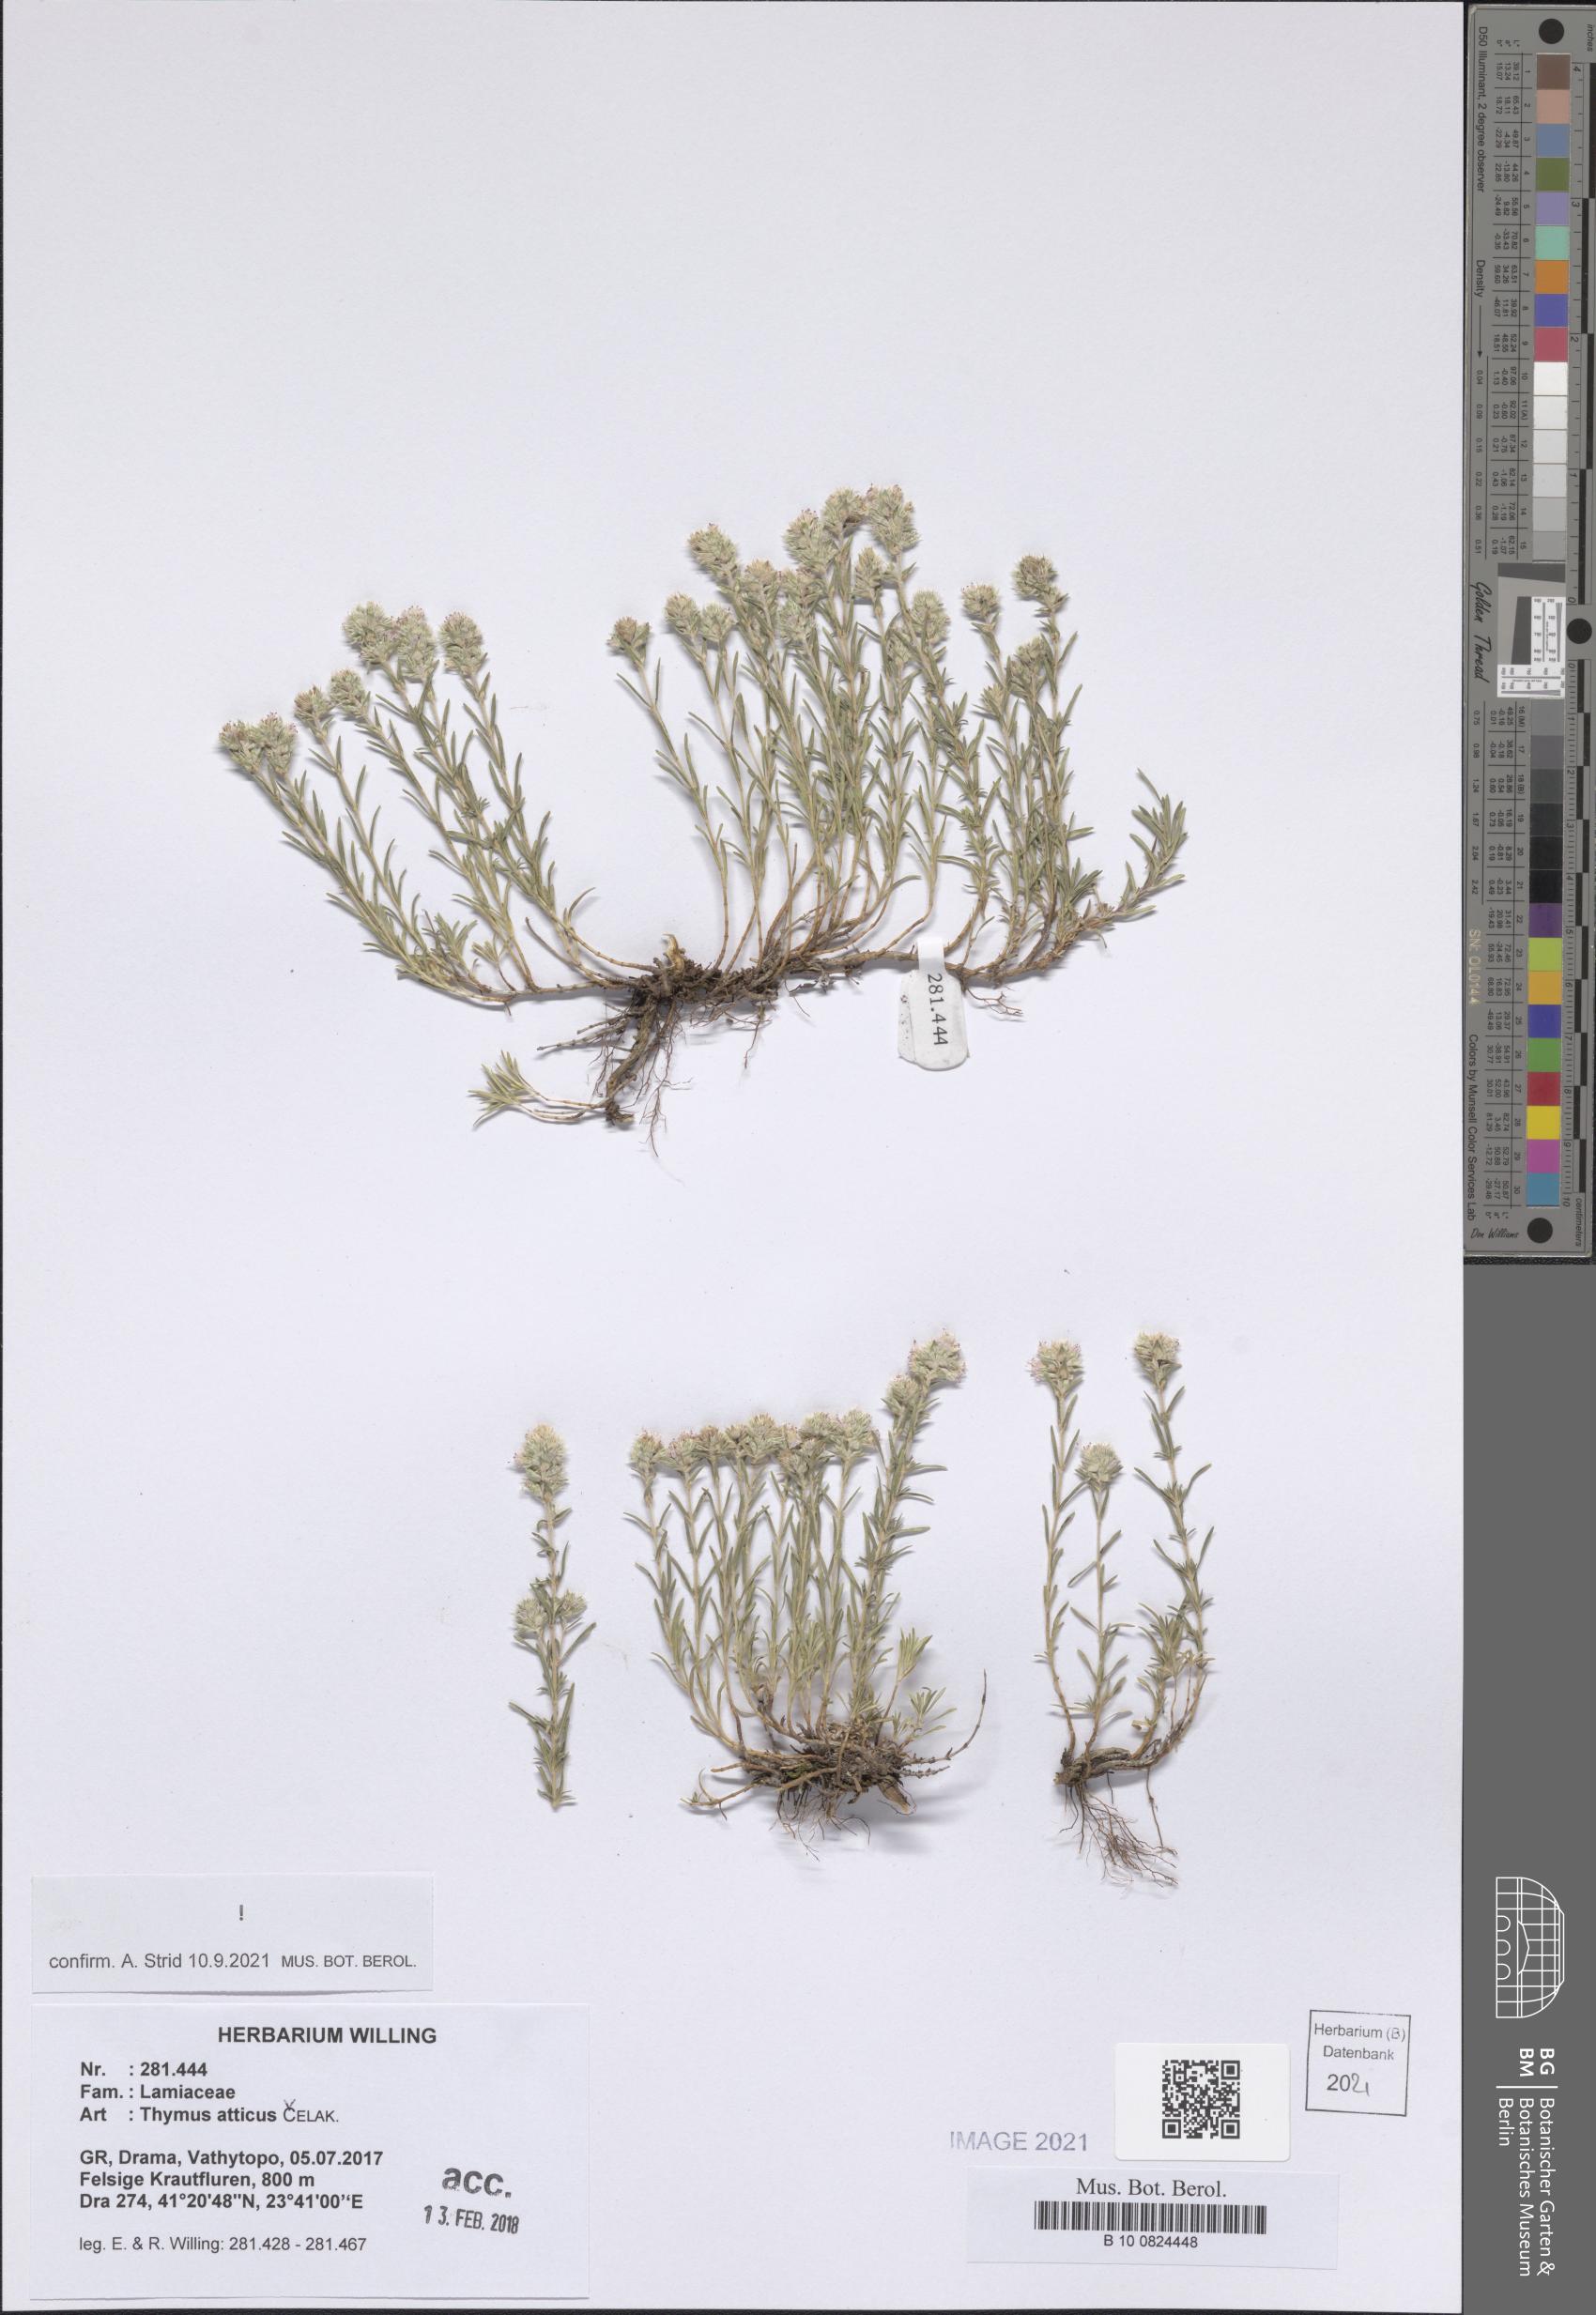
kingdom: Plantae
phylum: Tracheophyta
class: Magnoliopsida
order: Lamiales
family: Lamiaceae
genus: Thymus
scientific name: Thymus atticus
